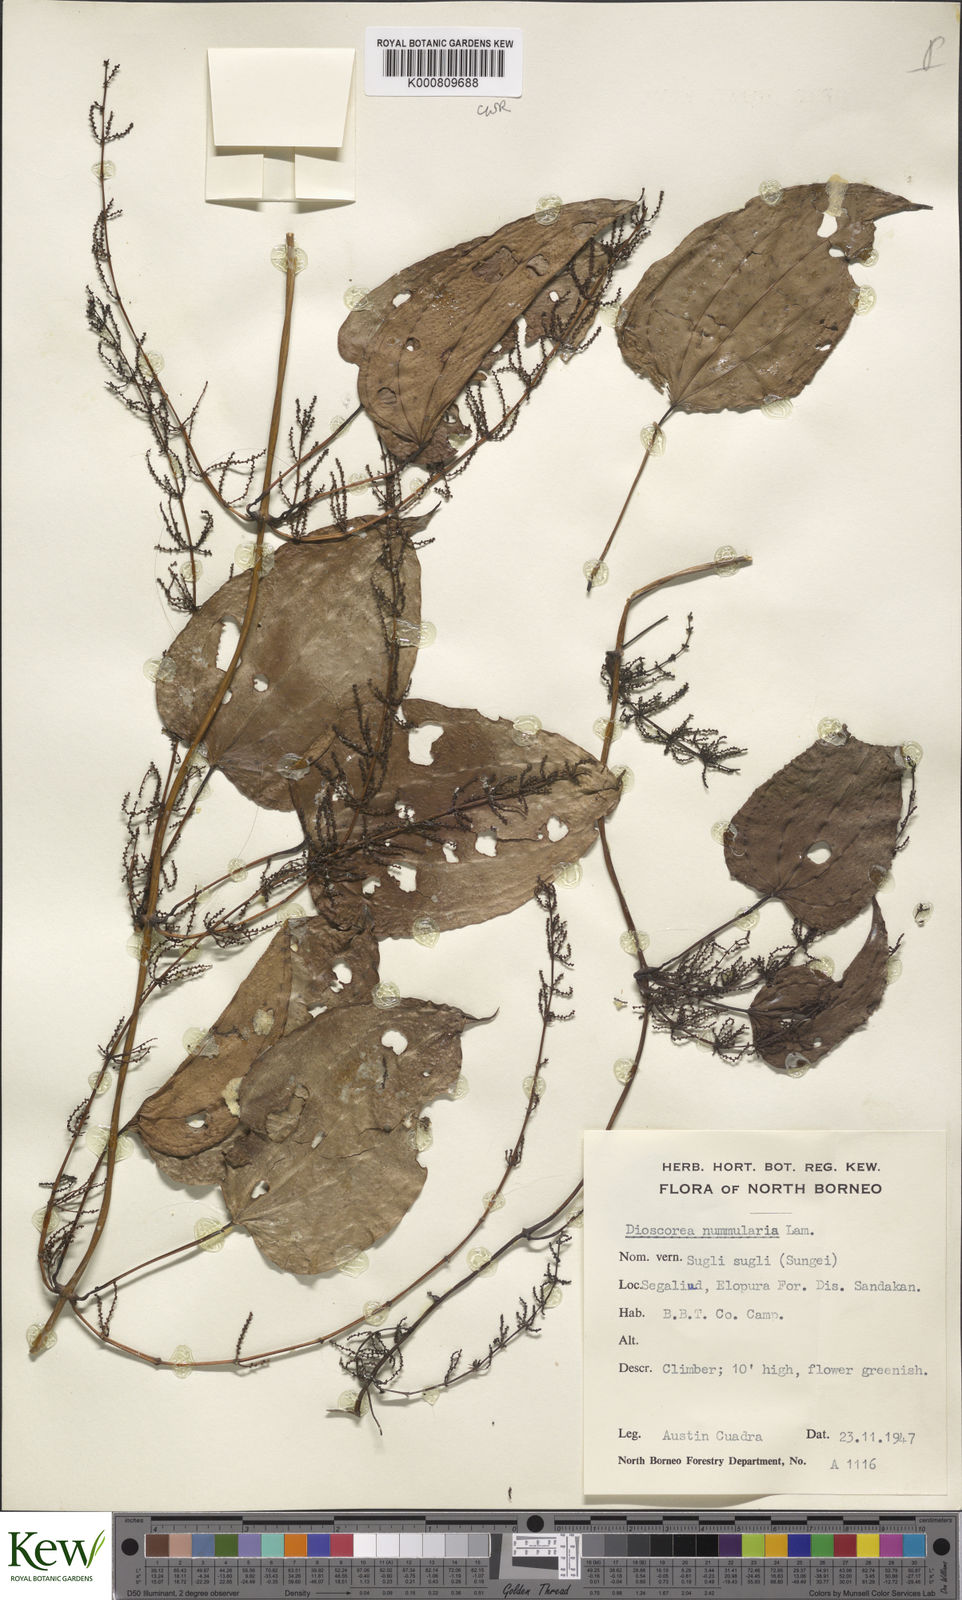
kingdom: Plantae
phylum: Tracheophyta
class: Liliopsida
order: Dioscoreales
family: Dioscoreaceae
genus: Dioscorea
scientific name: Dioscorea nummularia
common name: Pacific yam
